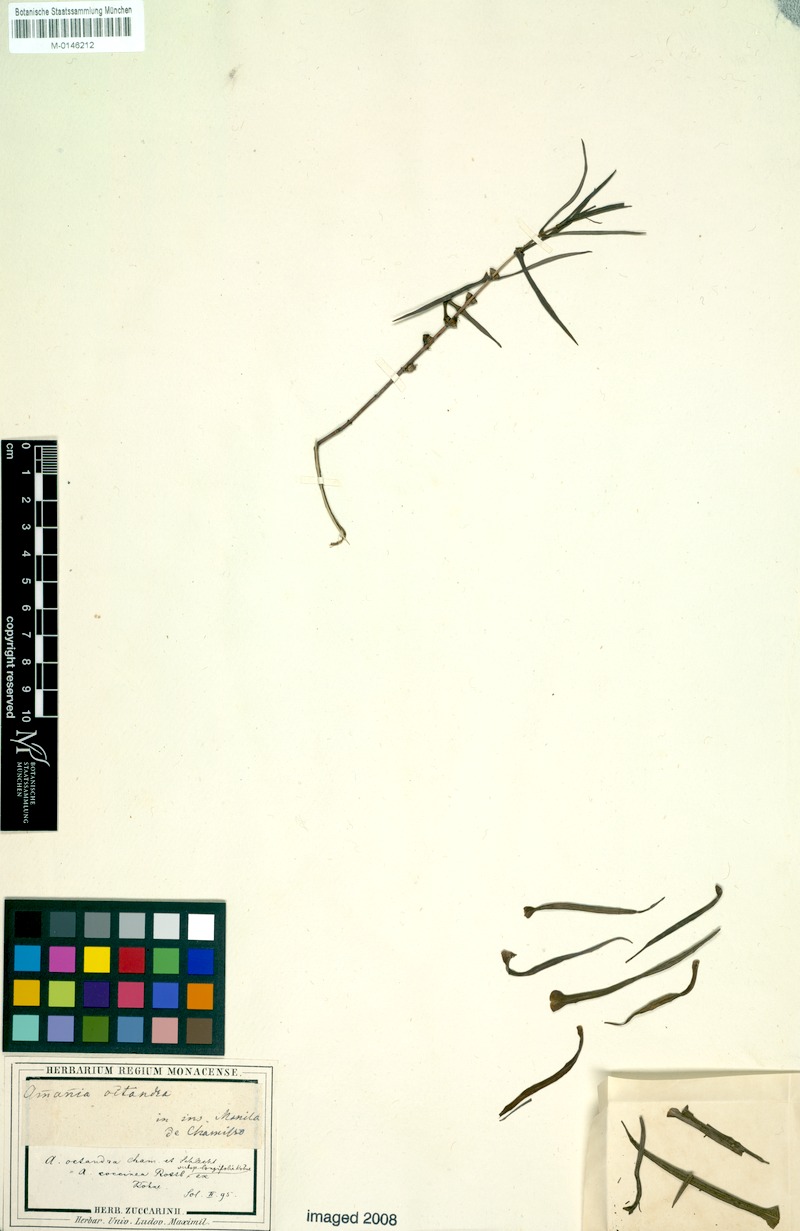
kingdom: Plantae
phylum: Tracheophyta
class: Magnoliopsida
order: Myrtales
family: Lythraceae
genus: Ammannia
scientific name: Ammannia octandra
